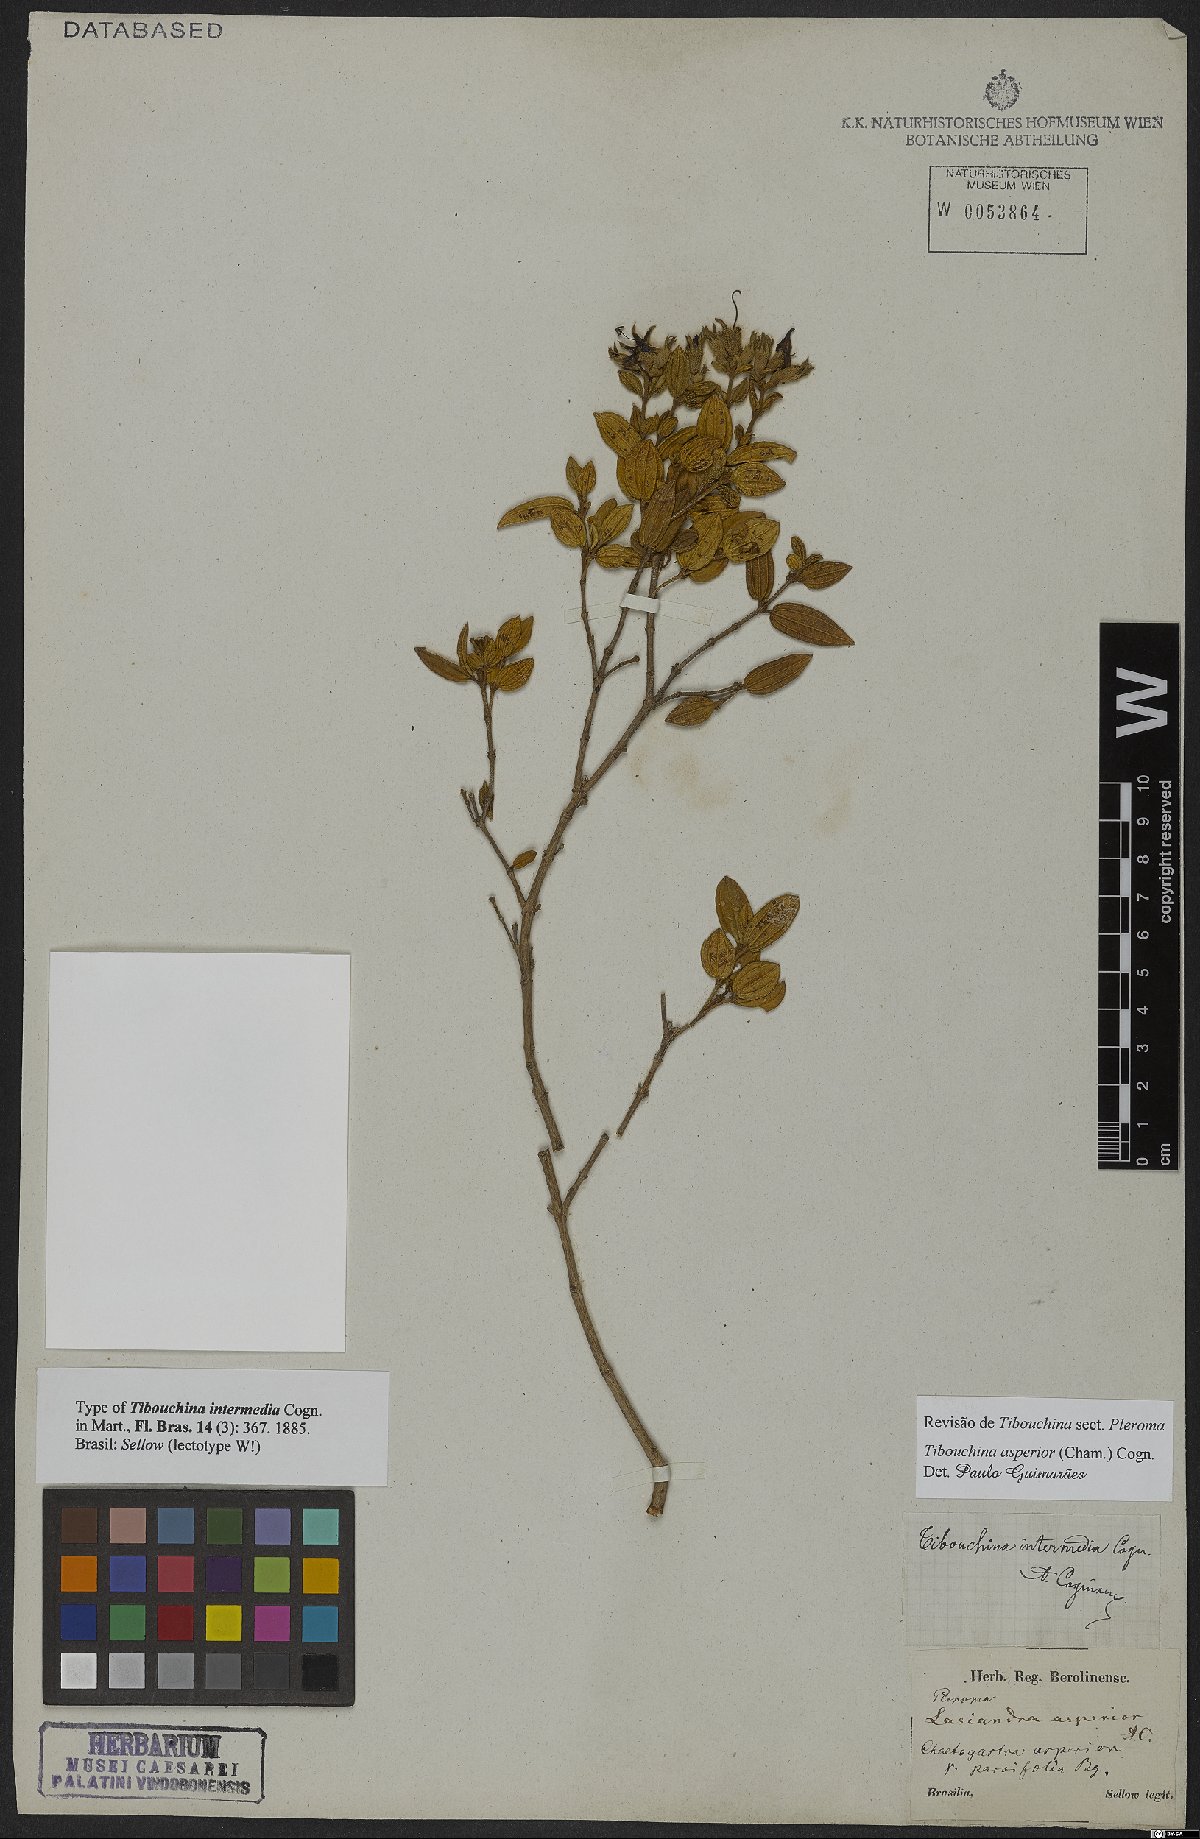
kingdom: Plantae
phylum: Tracheophyta
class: Magnoliopsida
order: Myrtales
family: Melastomataceae
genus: Pleroma
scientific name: Pleroma asperius
